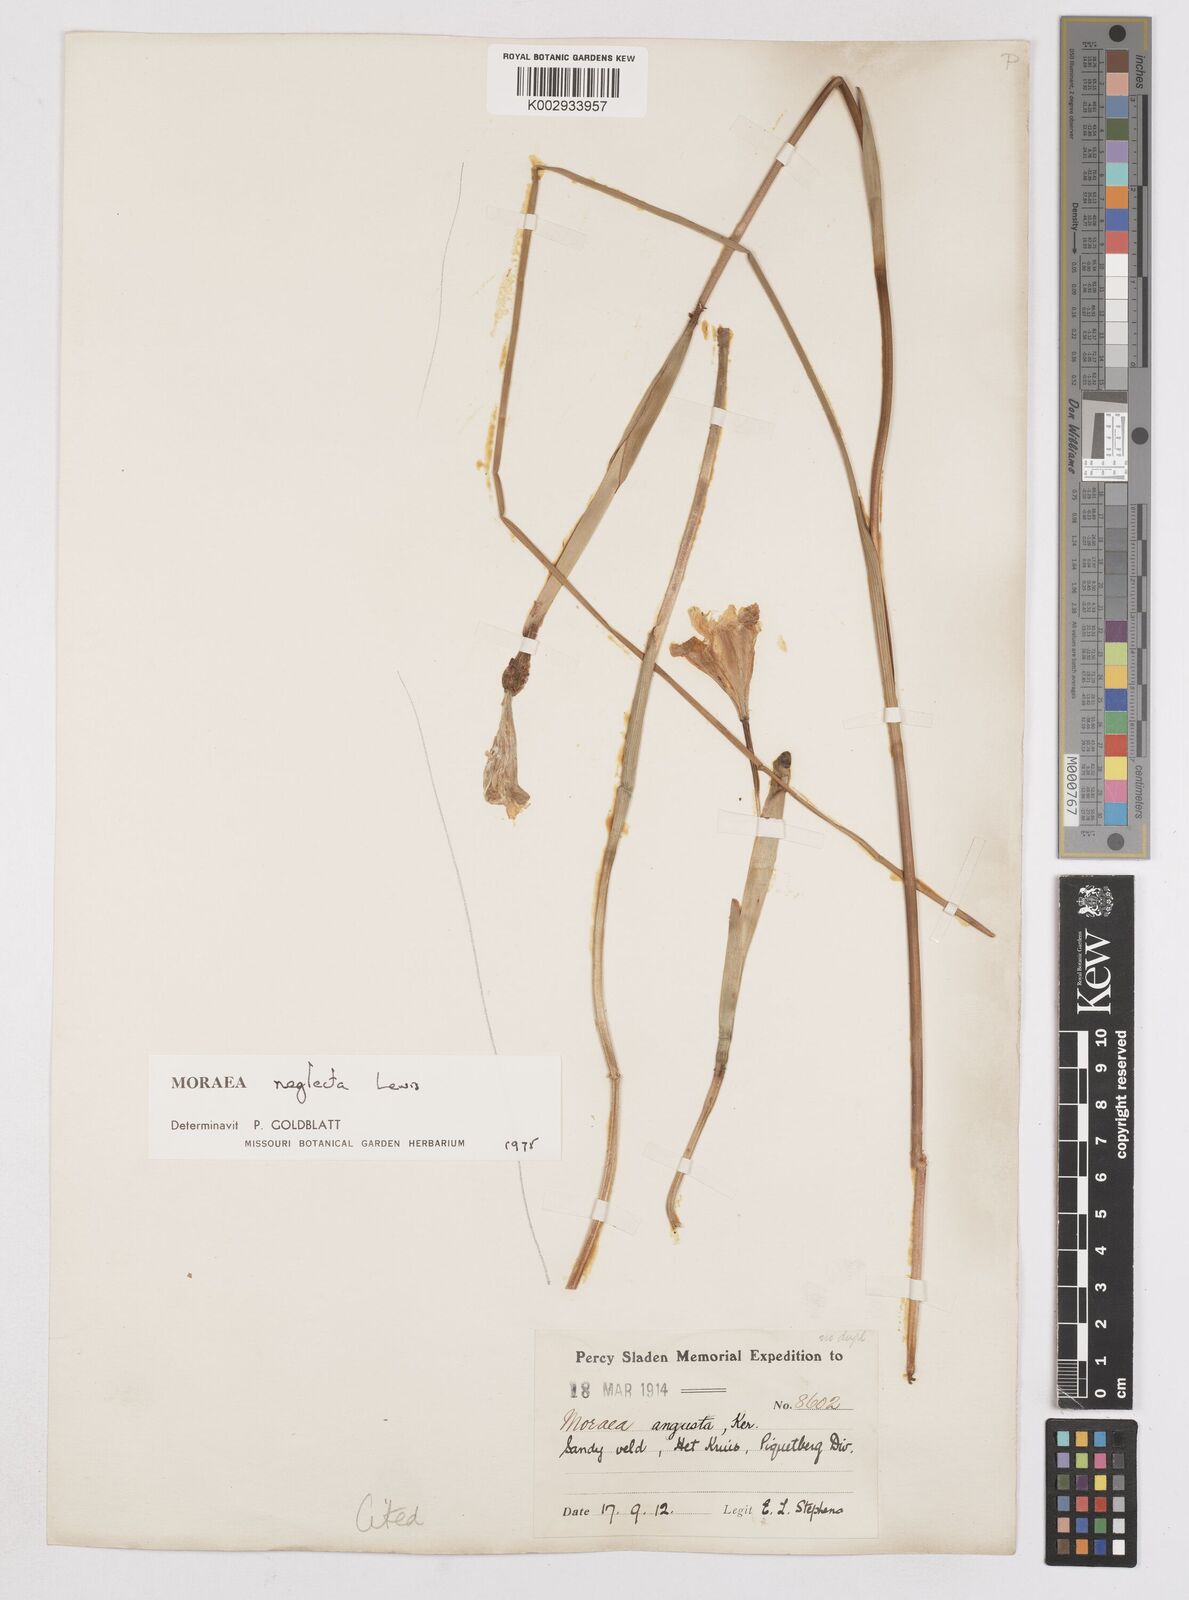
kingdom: Plantae
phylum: Tracheophyta
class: Liliopsida
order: Asparagales
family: Iridaceae
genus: Moraea
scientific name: Moraea neglecta
